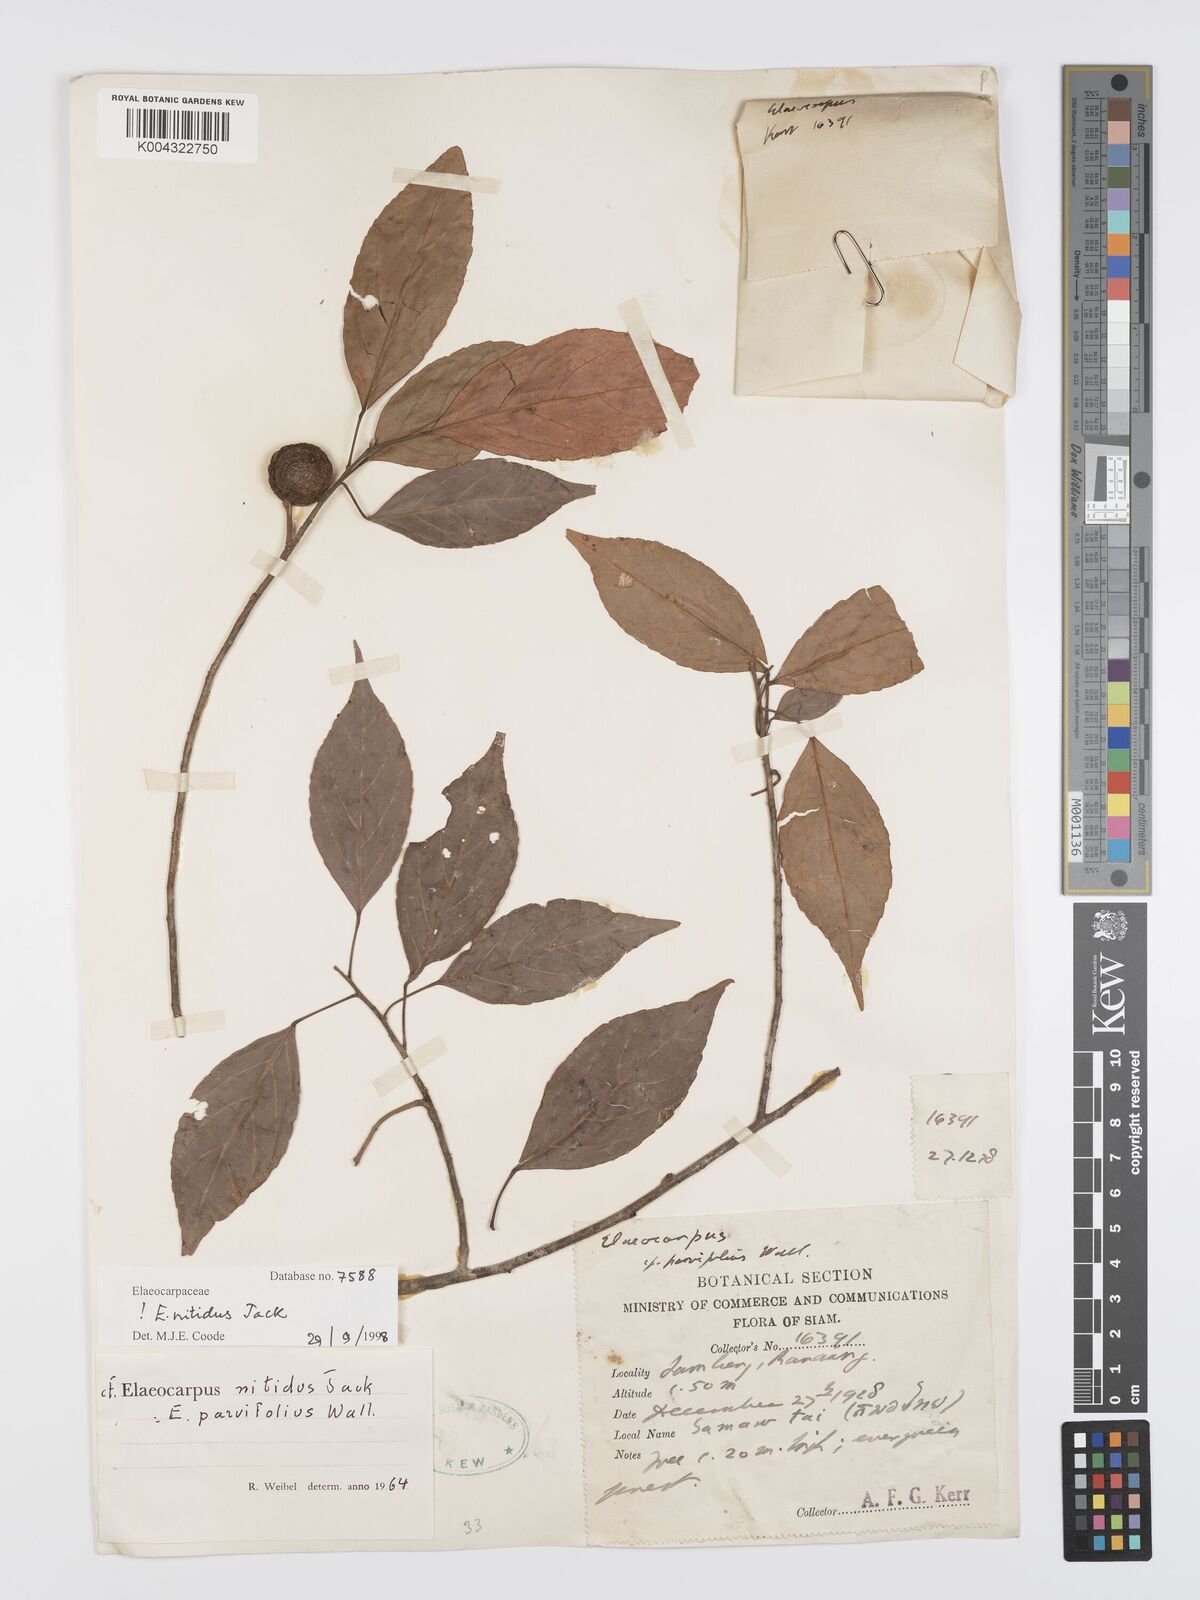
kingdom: Plantae
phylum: Tracheophyta
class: Magnoliopsida
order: Oxalidales
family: Elaeocarpaceae
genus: Elaeocarpus
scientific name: Elaeocarpus nitidus
